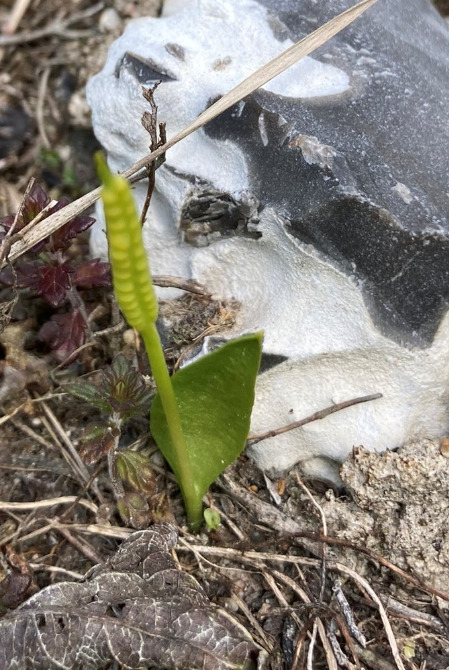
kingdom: Plantae
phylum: Tracheophyta
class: Polypodiopsida
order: Ophioglossales
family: Ophioglossaceae
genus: Ophioglossum
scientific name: Ophioglossum vulgatum
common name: Slangetunge
